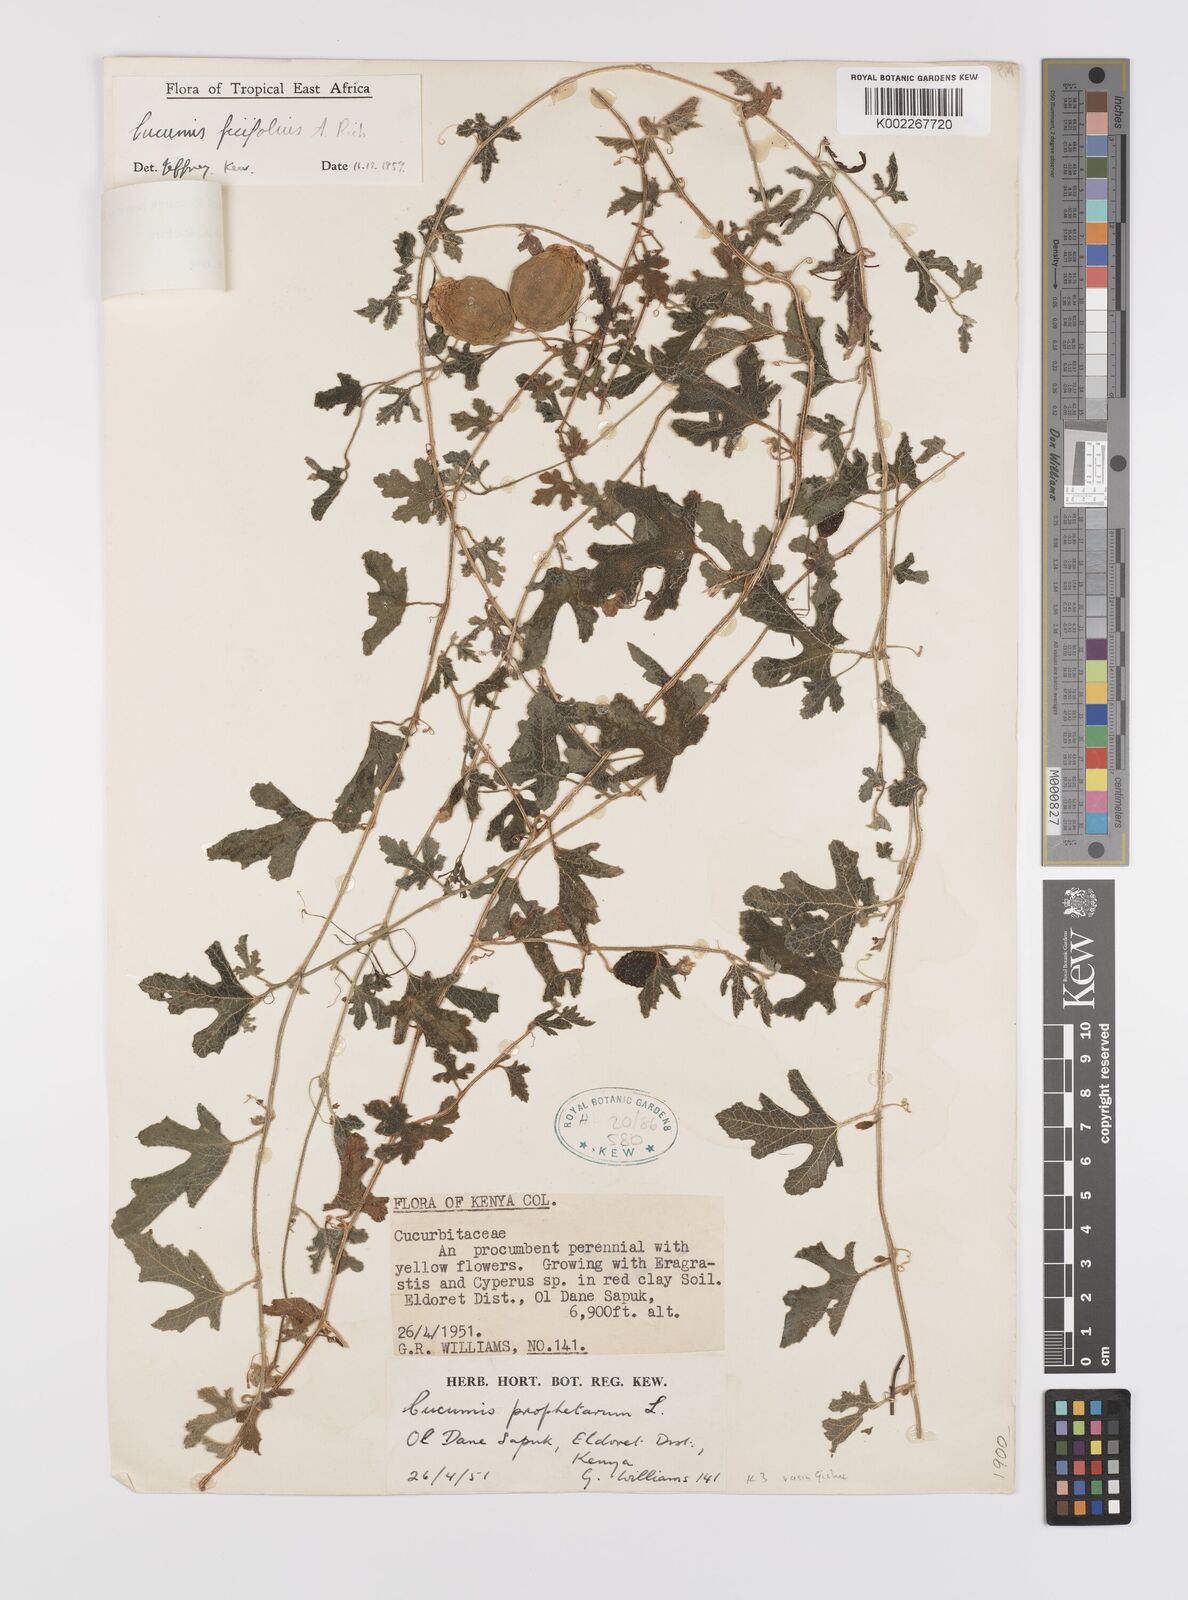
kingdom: Plantae
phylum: Tracheophyta
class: Magnoliopsida
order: Cucurbitales
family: Cucurbitaceae
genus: Cucumis
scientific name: Cucumis ficifolius
